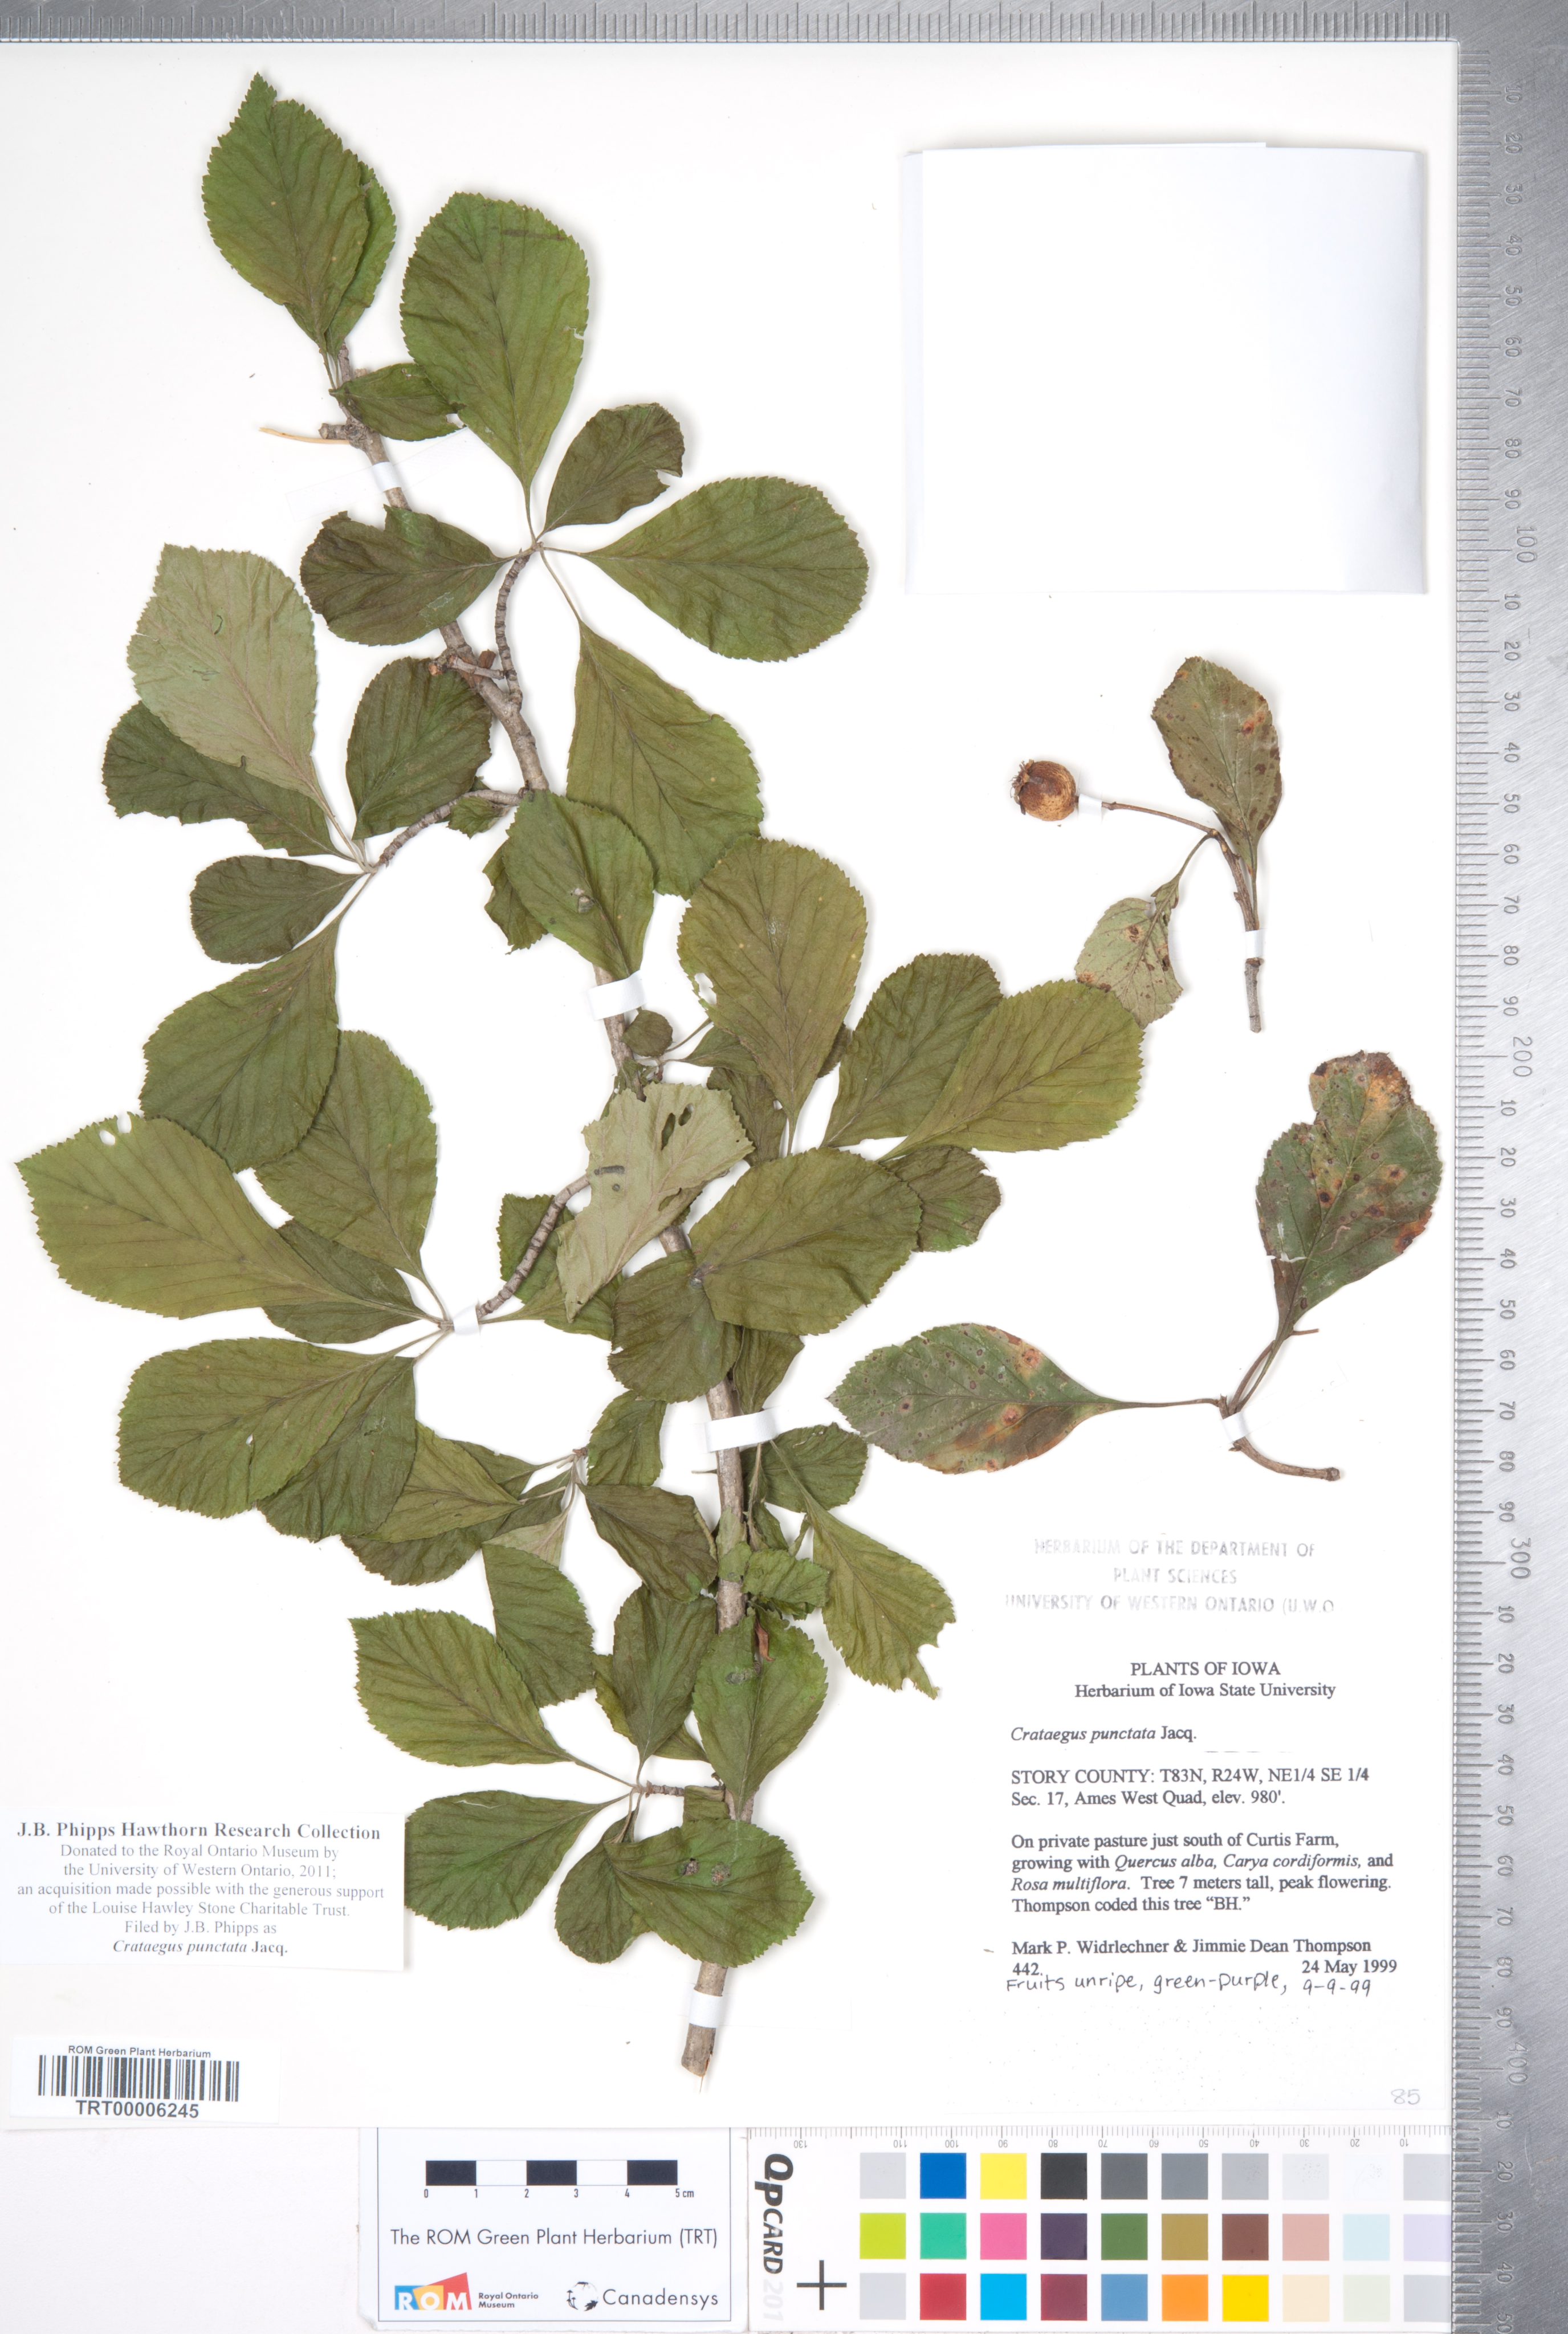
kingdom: Plantae
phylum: Tracheophyta
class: Magnoliopsida
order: Rosales
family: Rosaceae
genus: Crataegus
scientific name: Crataegus punctata
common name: Dotted hawthorn
